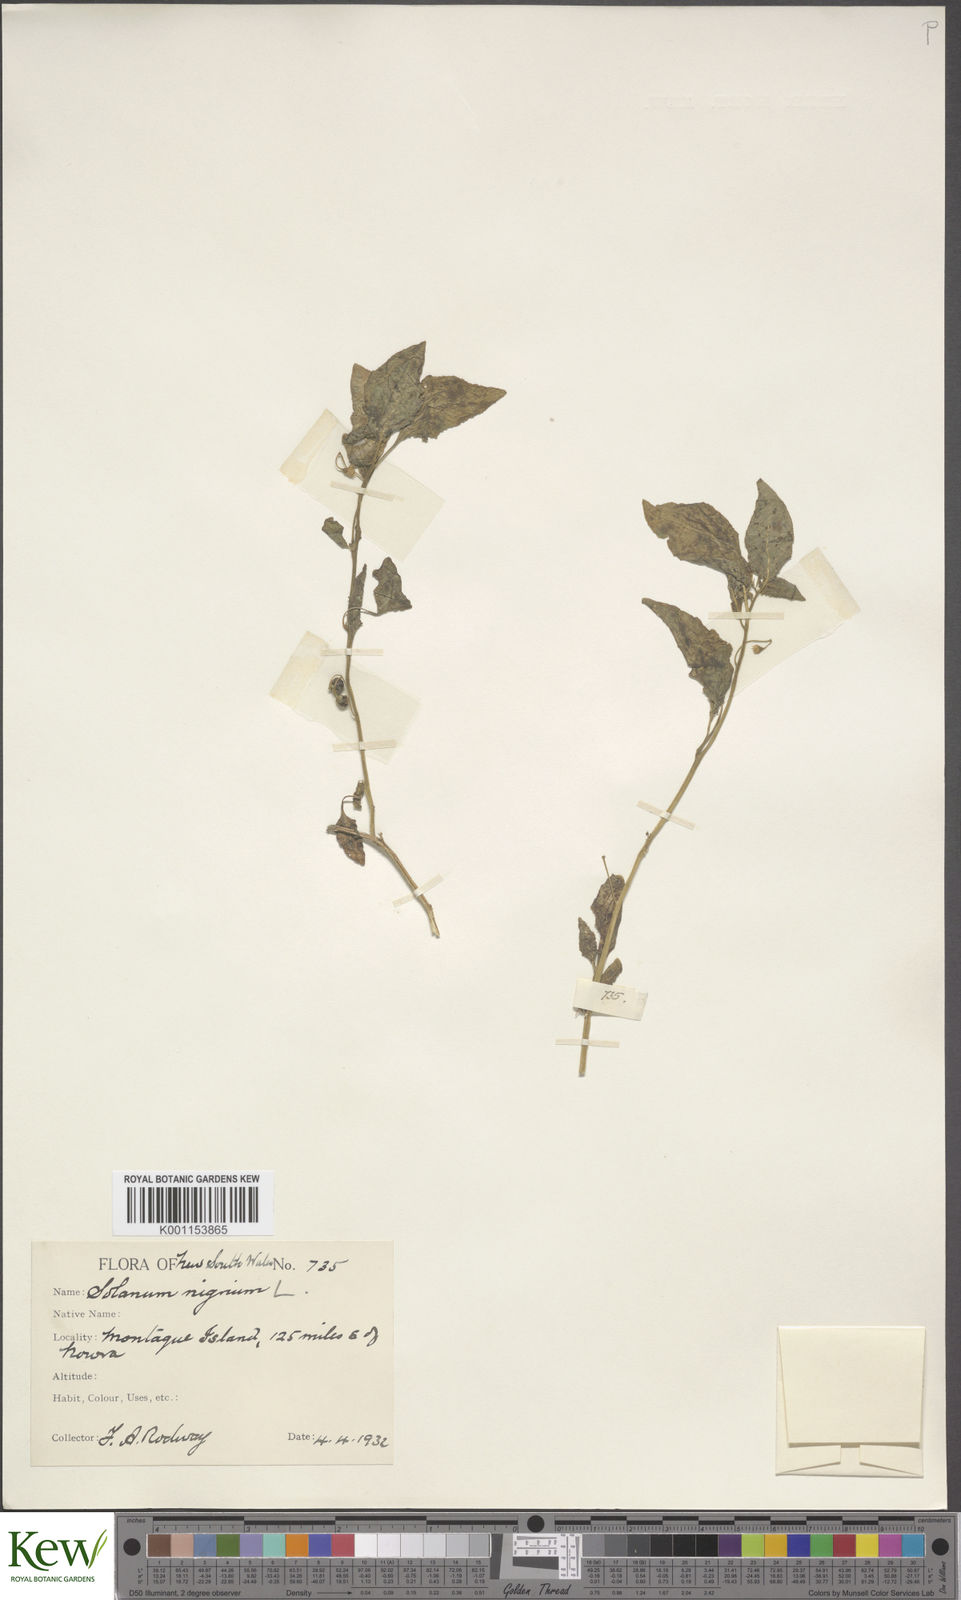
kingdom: Plantae
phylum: Tracheophyta
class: Magnoliopsida
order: Solanales
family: Solanaceae
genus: Solanum
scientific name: Solanum americanum
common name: American black nightshade
